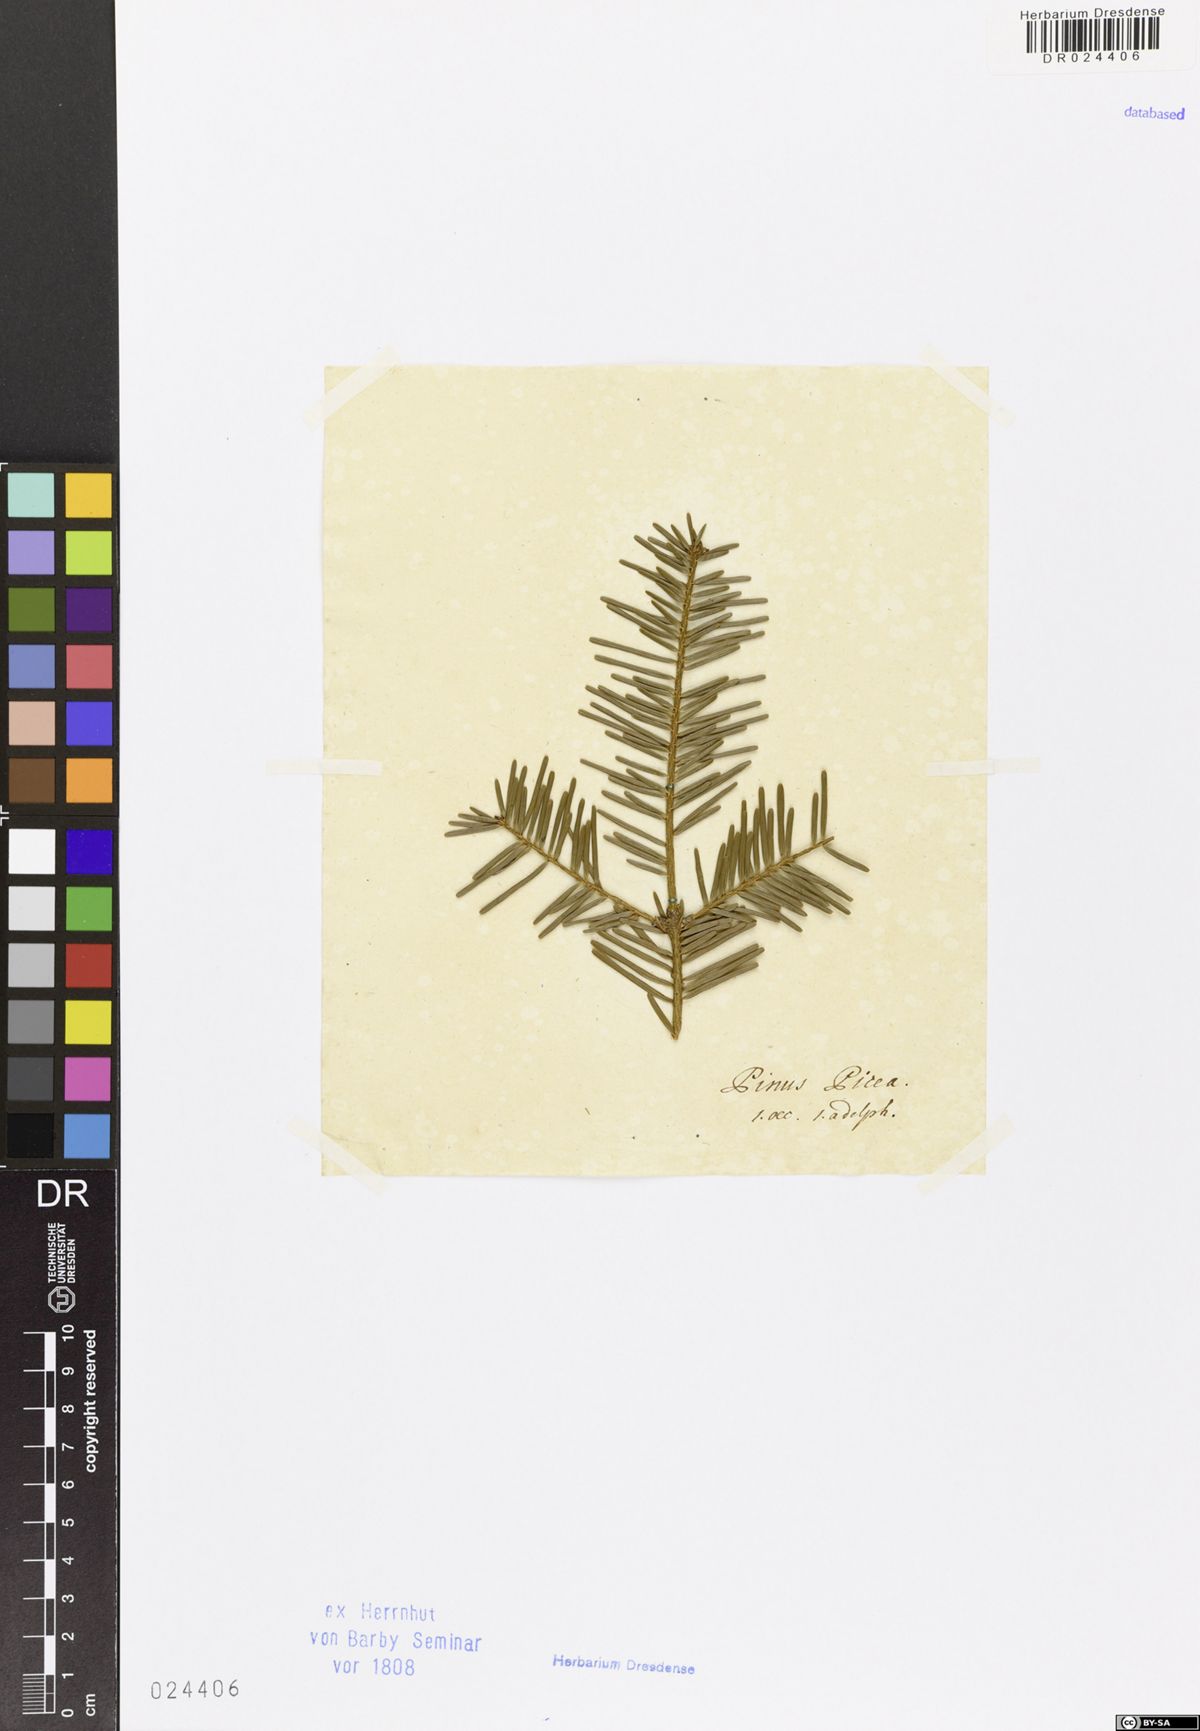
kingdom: Plantae
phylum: Tracheophyta
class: Pinopsida
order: Pinales
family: Pinaceae
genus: Abies
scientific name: Abies alba
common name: Silver fir
